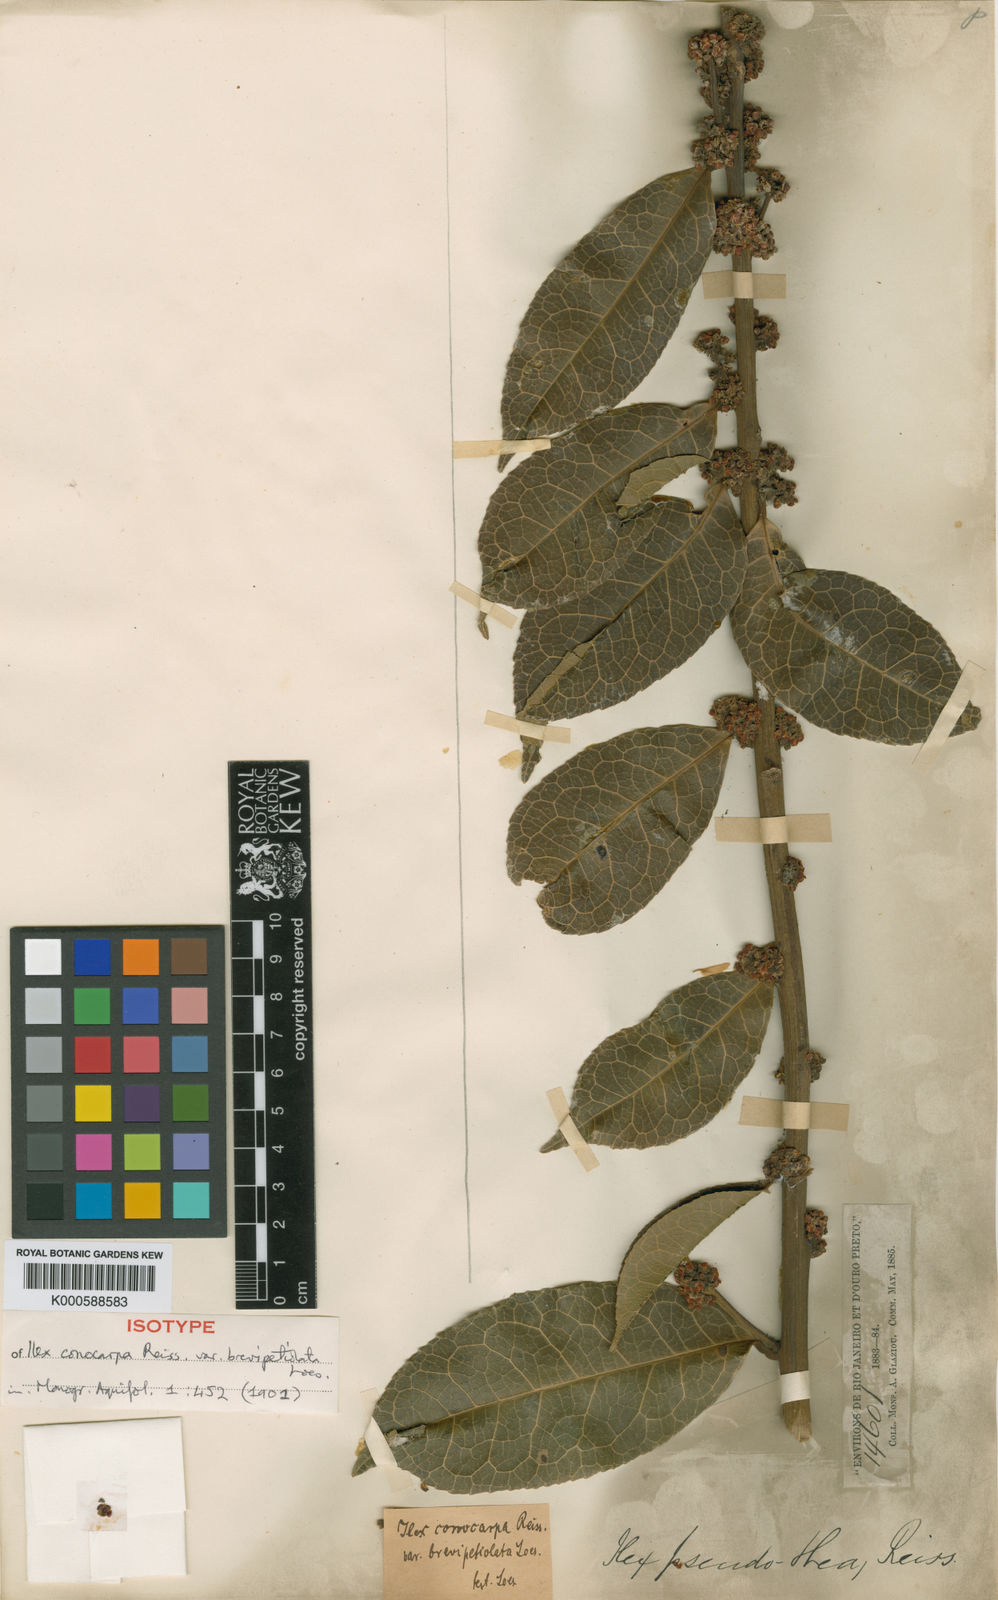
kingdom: Plantae
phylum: Tracheophyta
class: Magnoliopsida
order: Aquifoliales
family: Aquifoliaceae
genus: Ilex
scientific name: Ilex conocarpa
